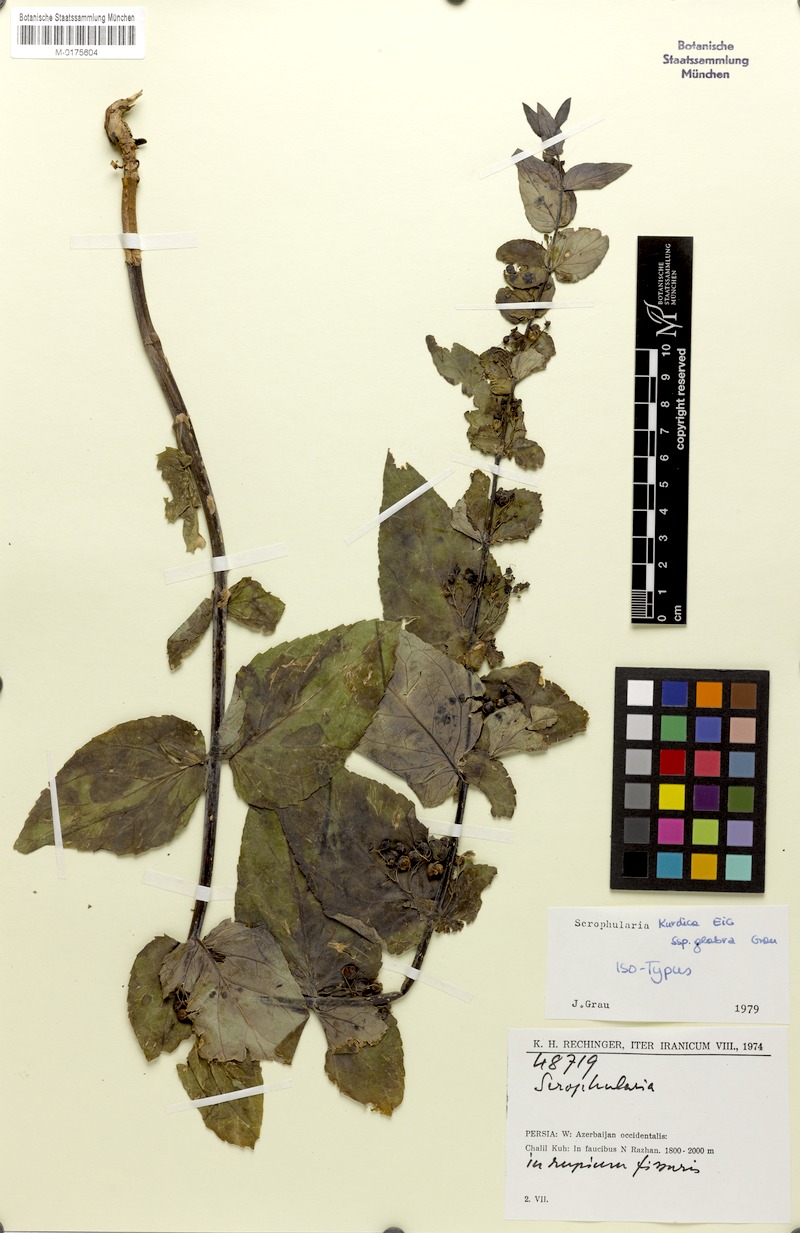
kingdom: Plantae
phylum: Tracheophyta
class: Magnoliopsida
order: Lamiales
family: Scrophulariaceae
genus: Scrophularia
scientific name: Scrophularia kurdica
